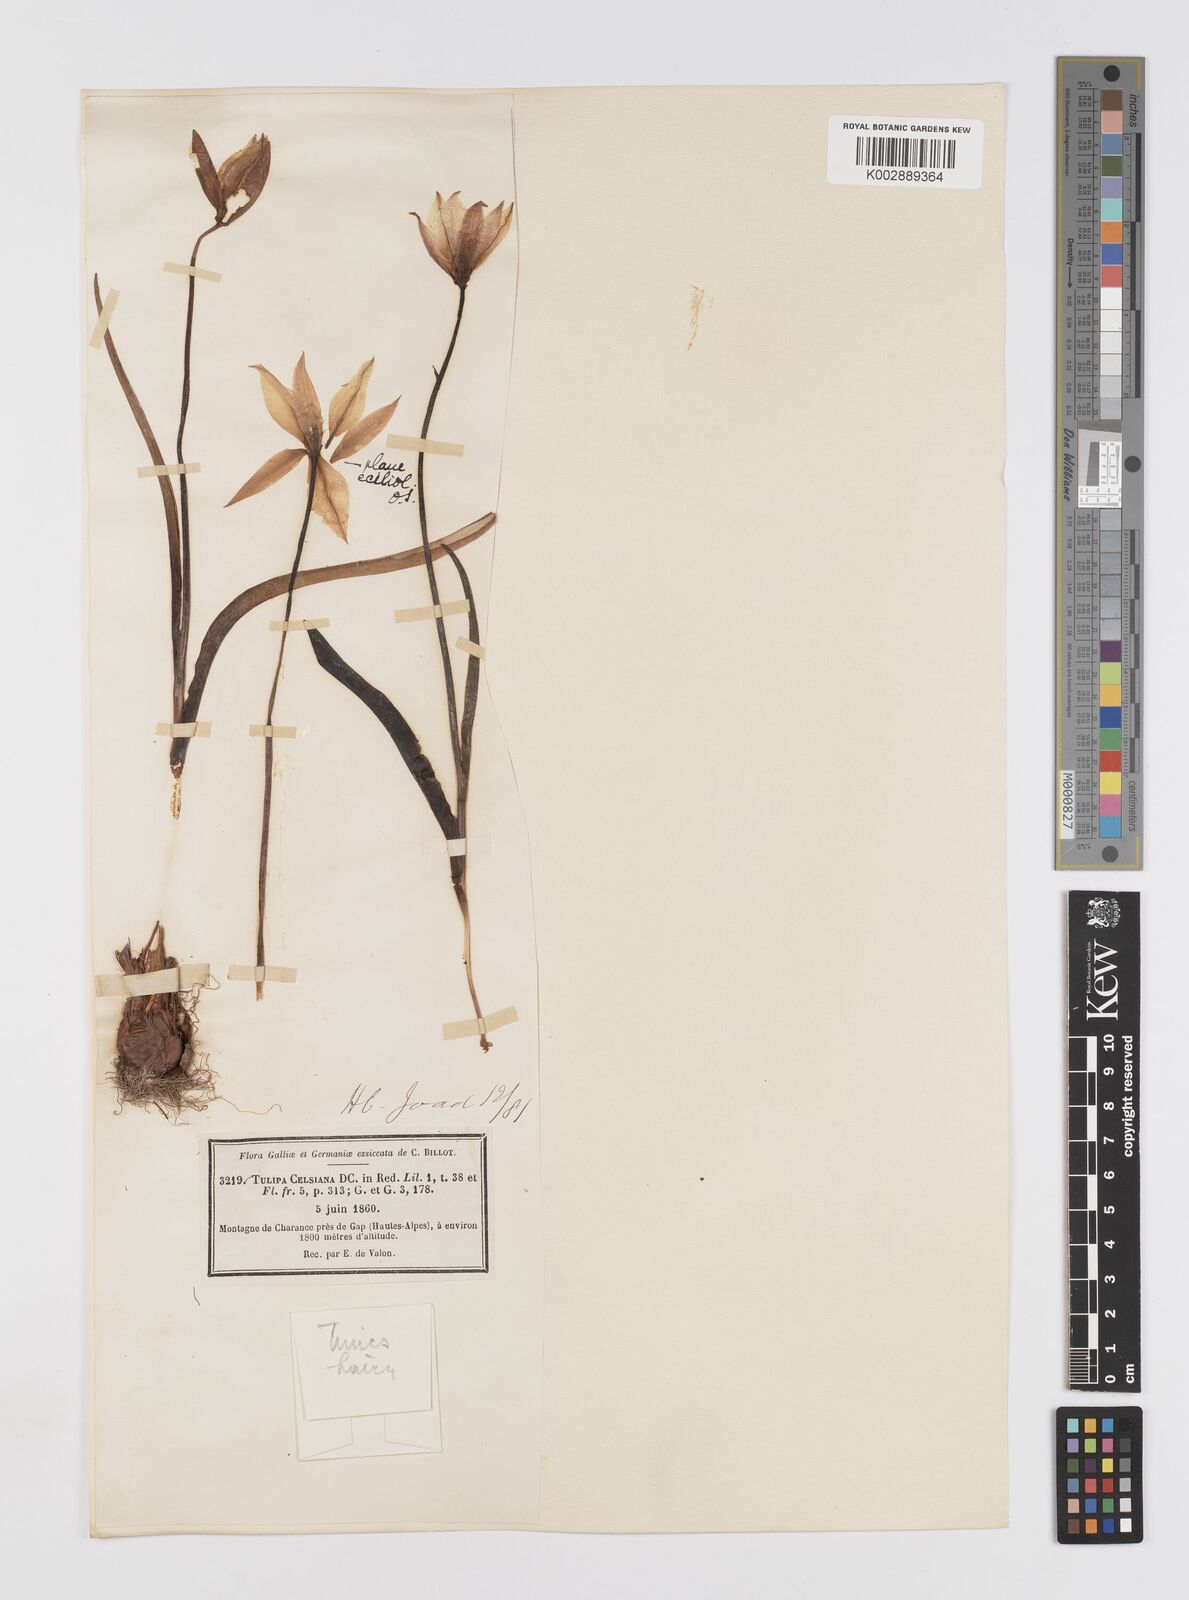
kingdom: Plantae
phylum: Tracheophyta
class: Liliopsida
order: Liliales
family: Liliaceae
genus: Tulipa
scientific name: Tulipa sylvestris
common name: Wild tulip
